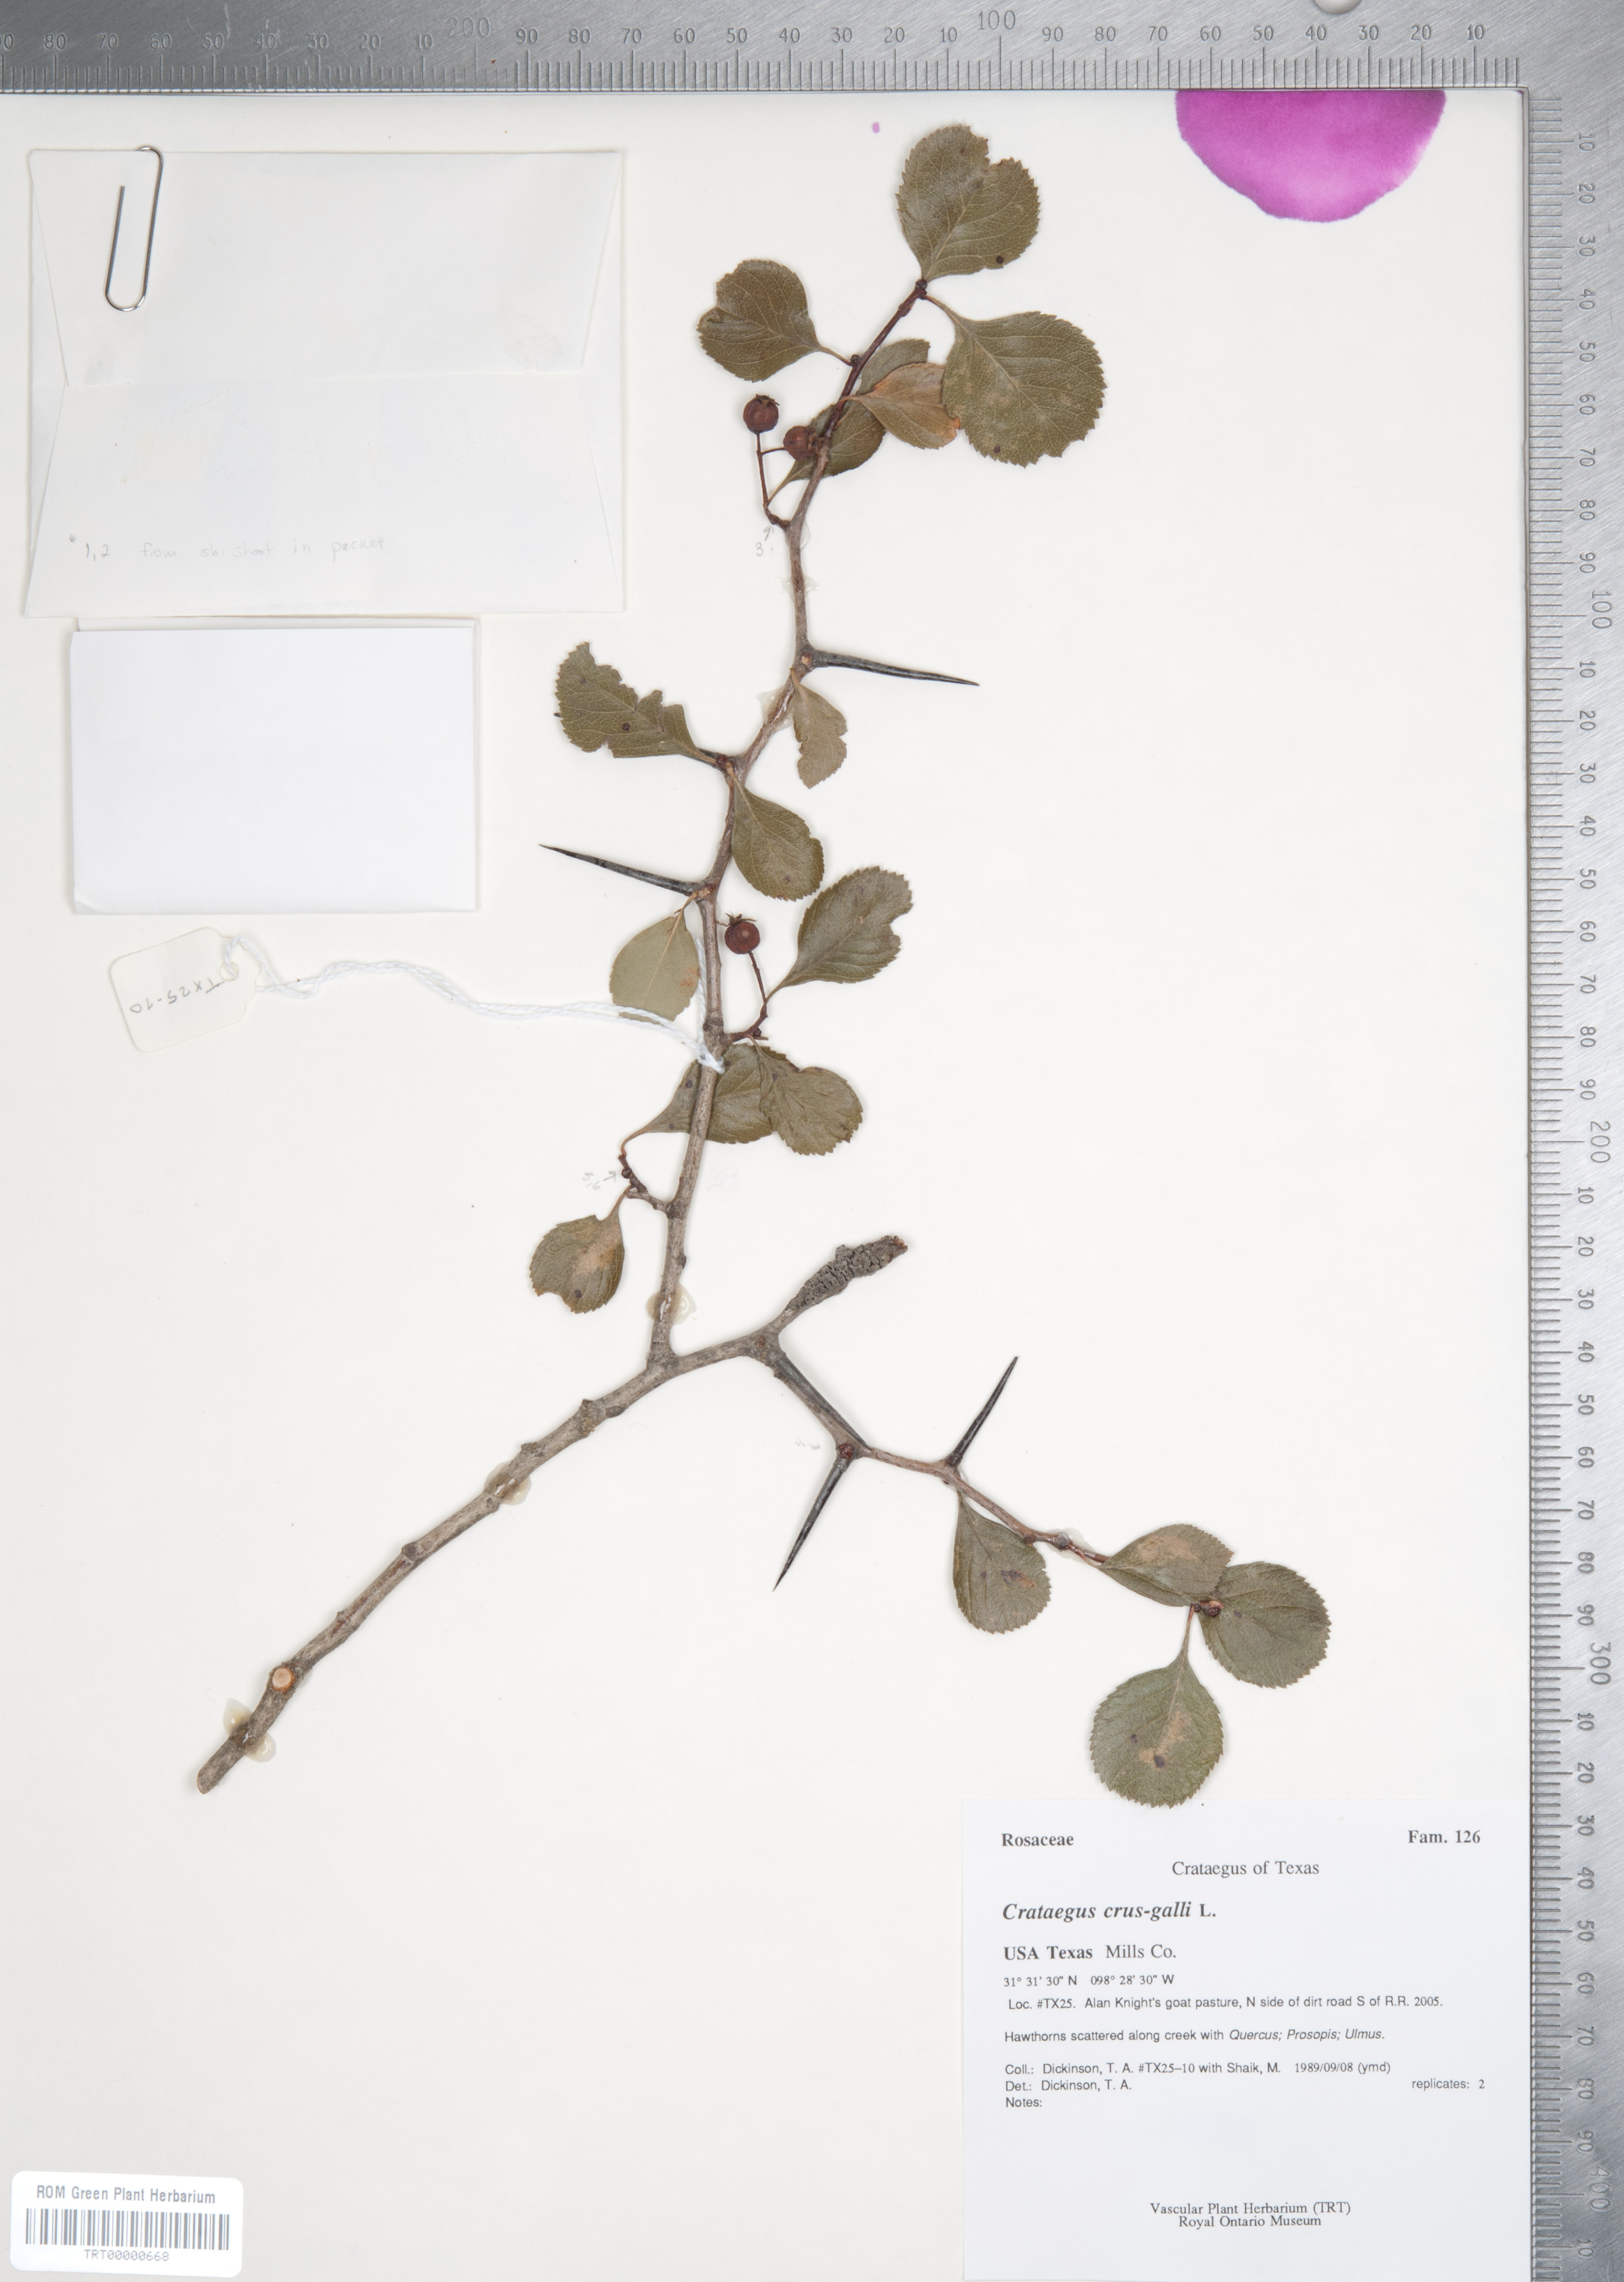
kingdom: Plantae
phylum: Tracheophyta
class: Magnoliopsida
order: Rosales
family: Rosaceae
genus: Crataegus
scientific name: Crataegus crus-galli
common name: Cockspurthorn
